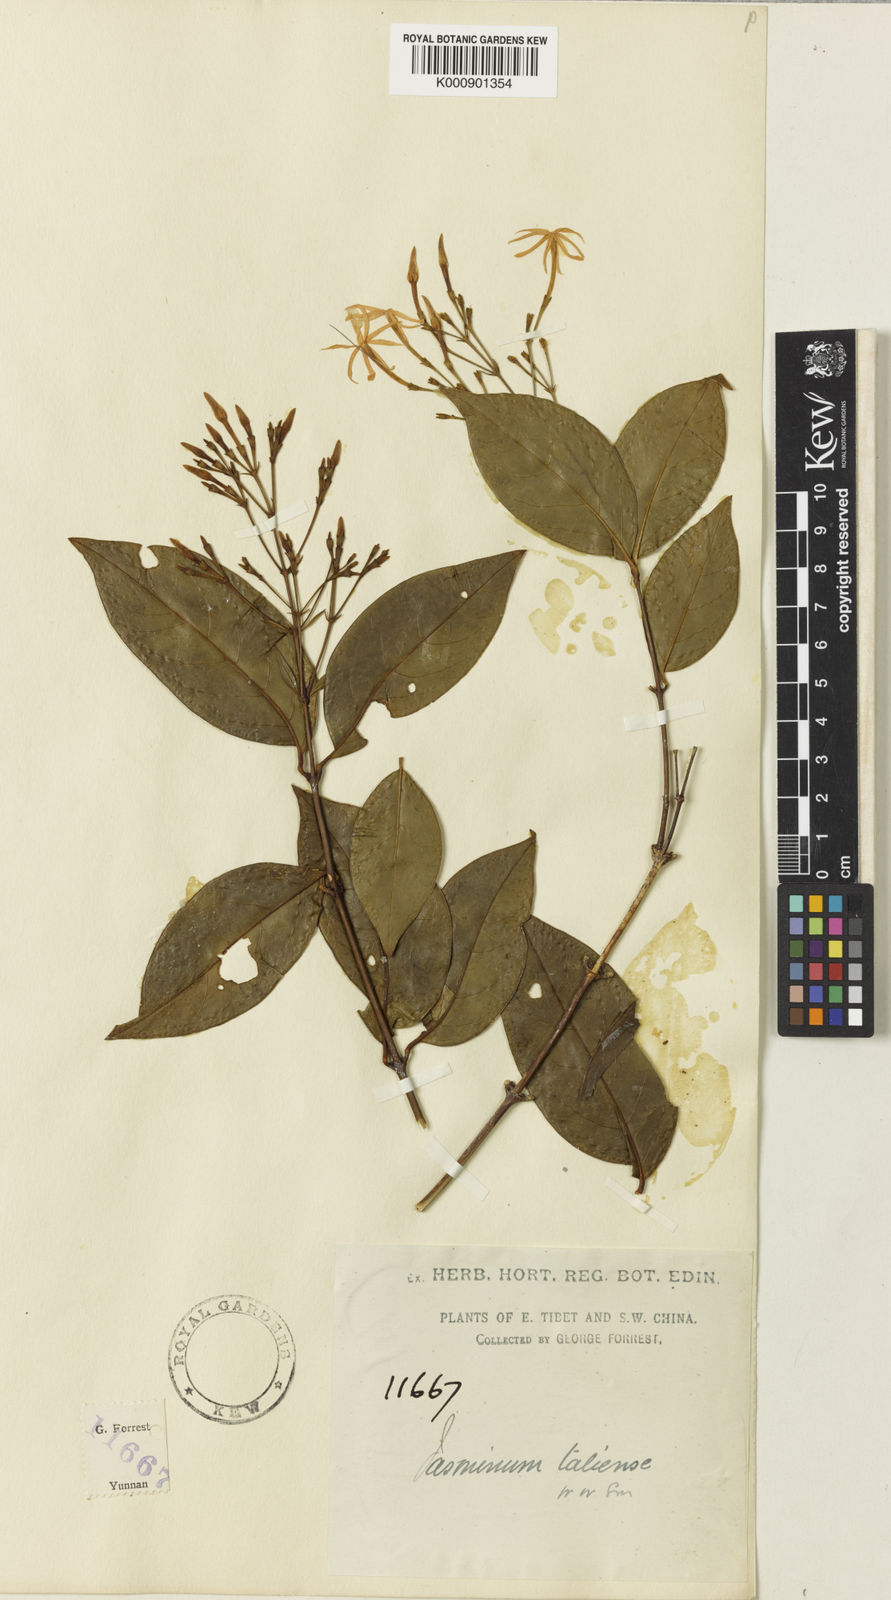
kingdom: Plantae
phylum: Tracheophyta
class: Magnoliopsida
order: Lamiales
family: Oleaceae
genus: Jasminum
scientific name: Jasminum
